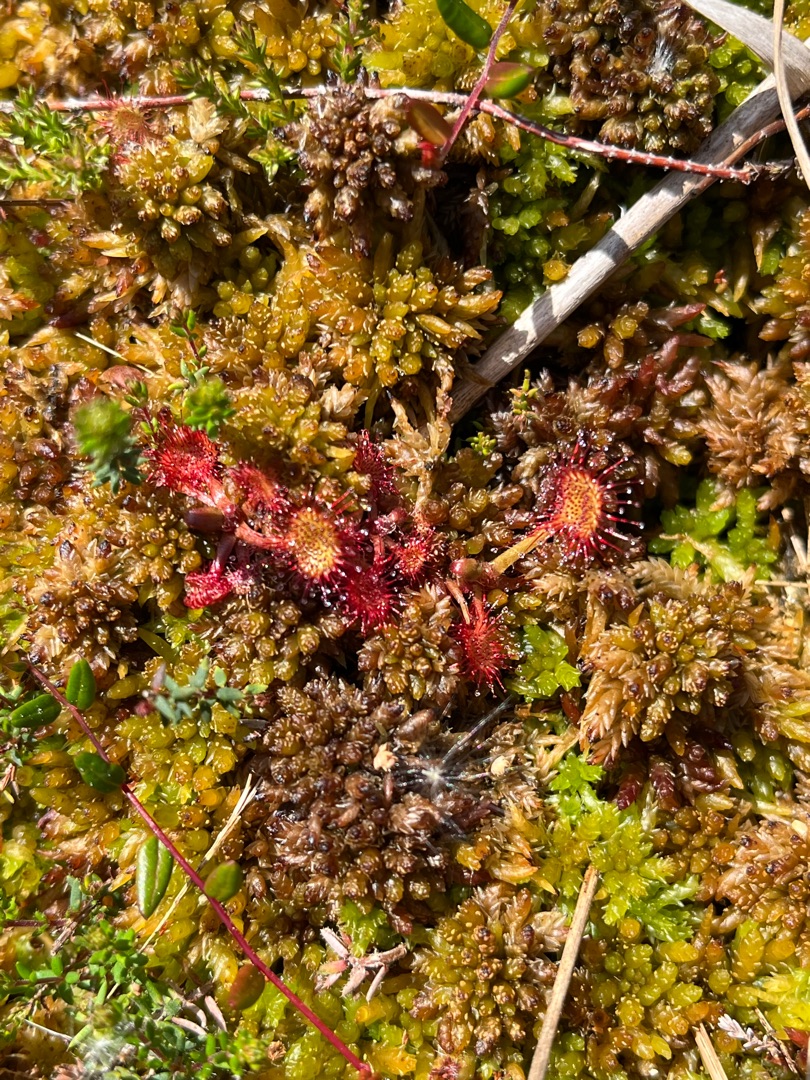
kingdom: Plantae
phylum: Tracheophyta
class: Magnoliopsida
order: Caryophyllales
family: Droseraceae
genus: Drosera
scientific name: Drosera rotundifolia
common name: Rundbladet soldug
